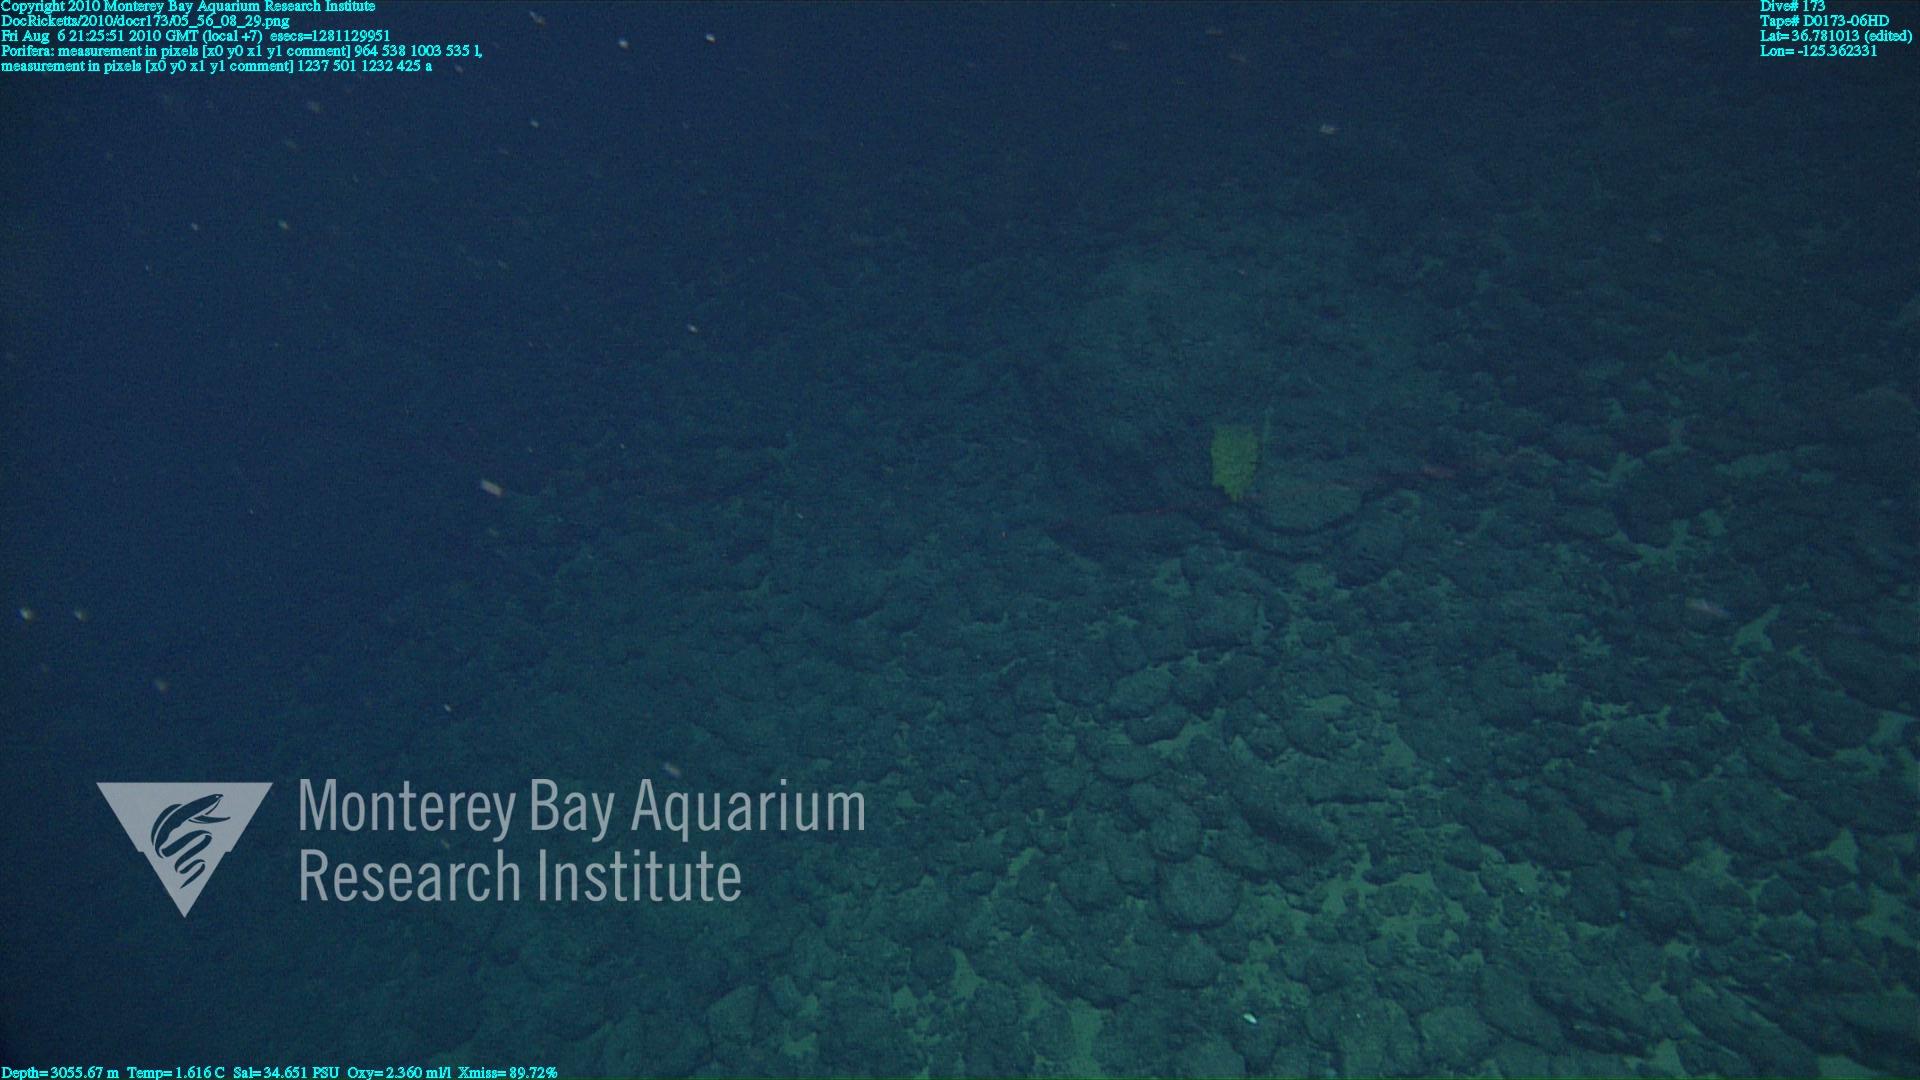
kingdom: Animalia
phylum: Porifera
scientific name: Porifera
